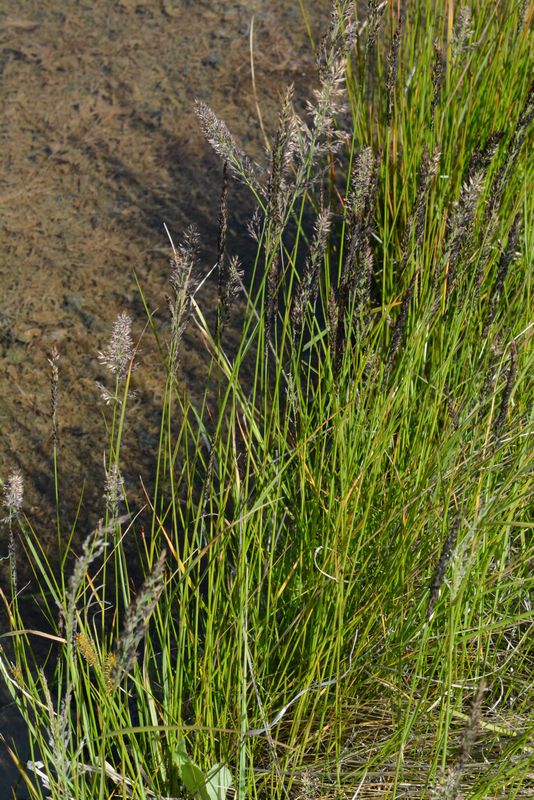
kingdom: Plantae
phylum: Tracheophyta
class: Liliopsida
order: Poales
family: Poaceae
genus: Achnatherum
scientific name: Achnatherum calamagrostis
